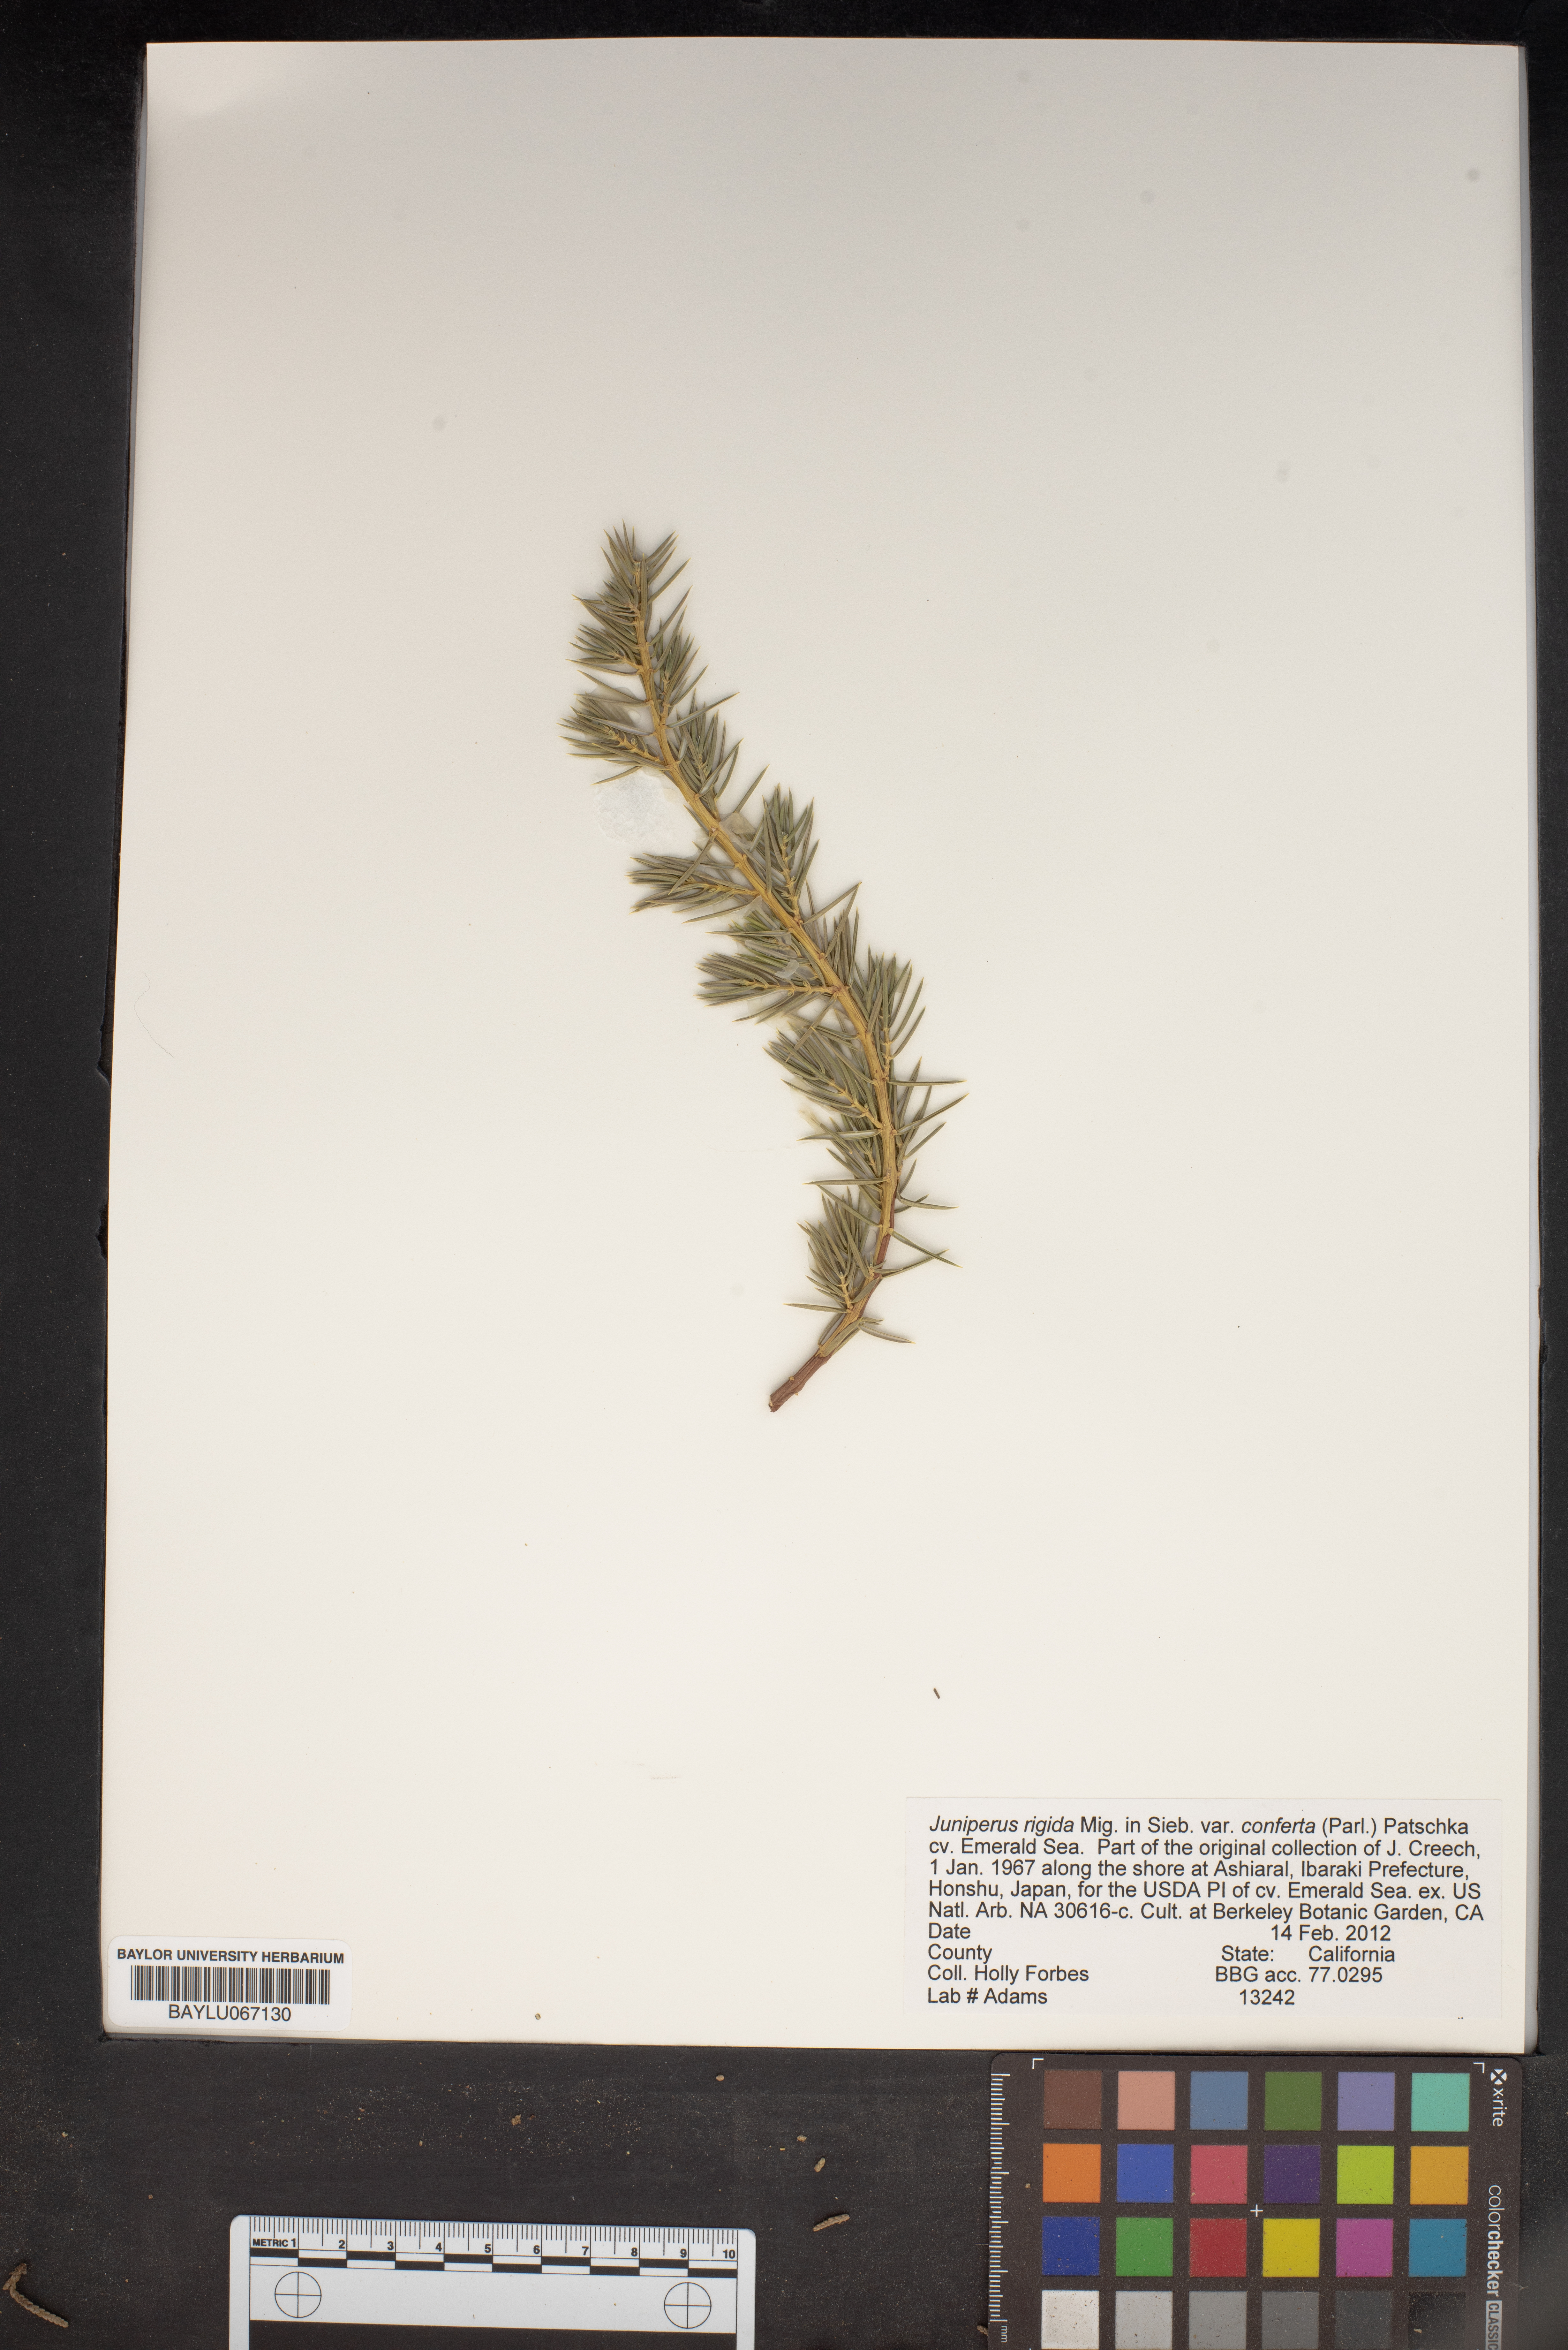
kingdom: Plantae
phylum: Tracheophyta
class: Pinopsida
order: Pinales
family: Cupressaceae
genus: Juniperus
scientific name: Juniperus rigida
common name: Needle juniper
